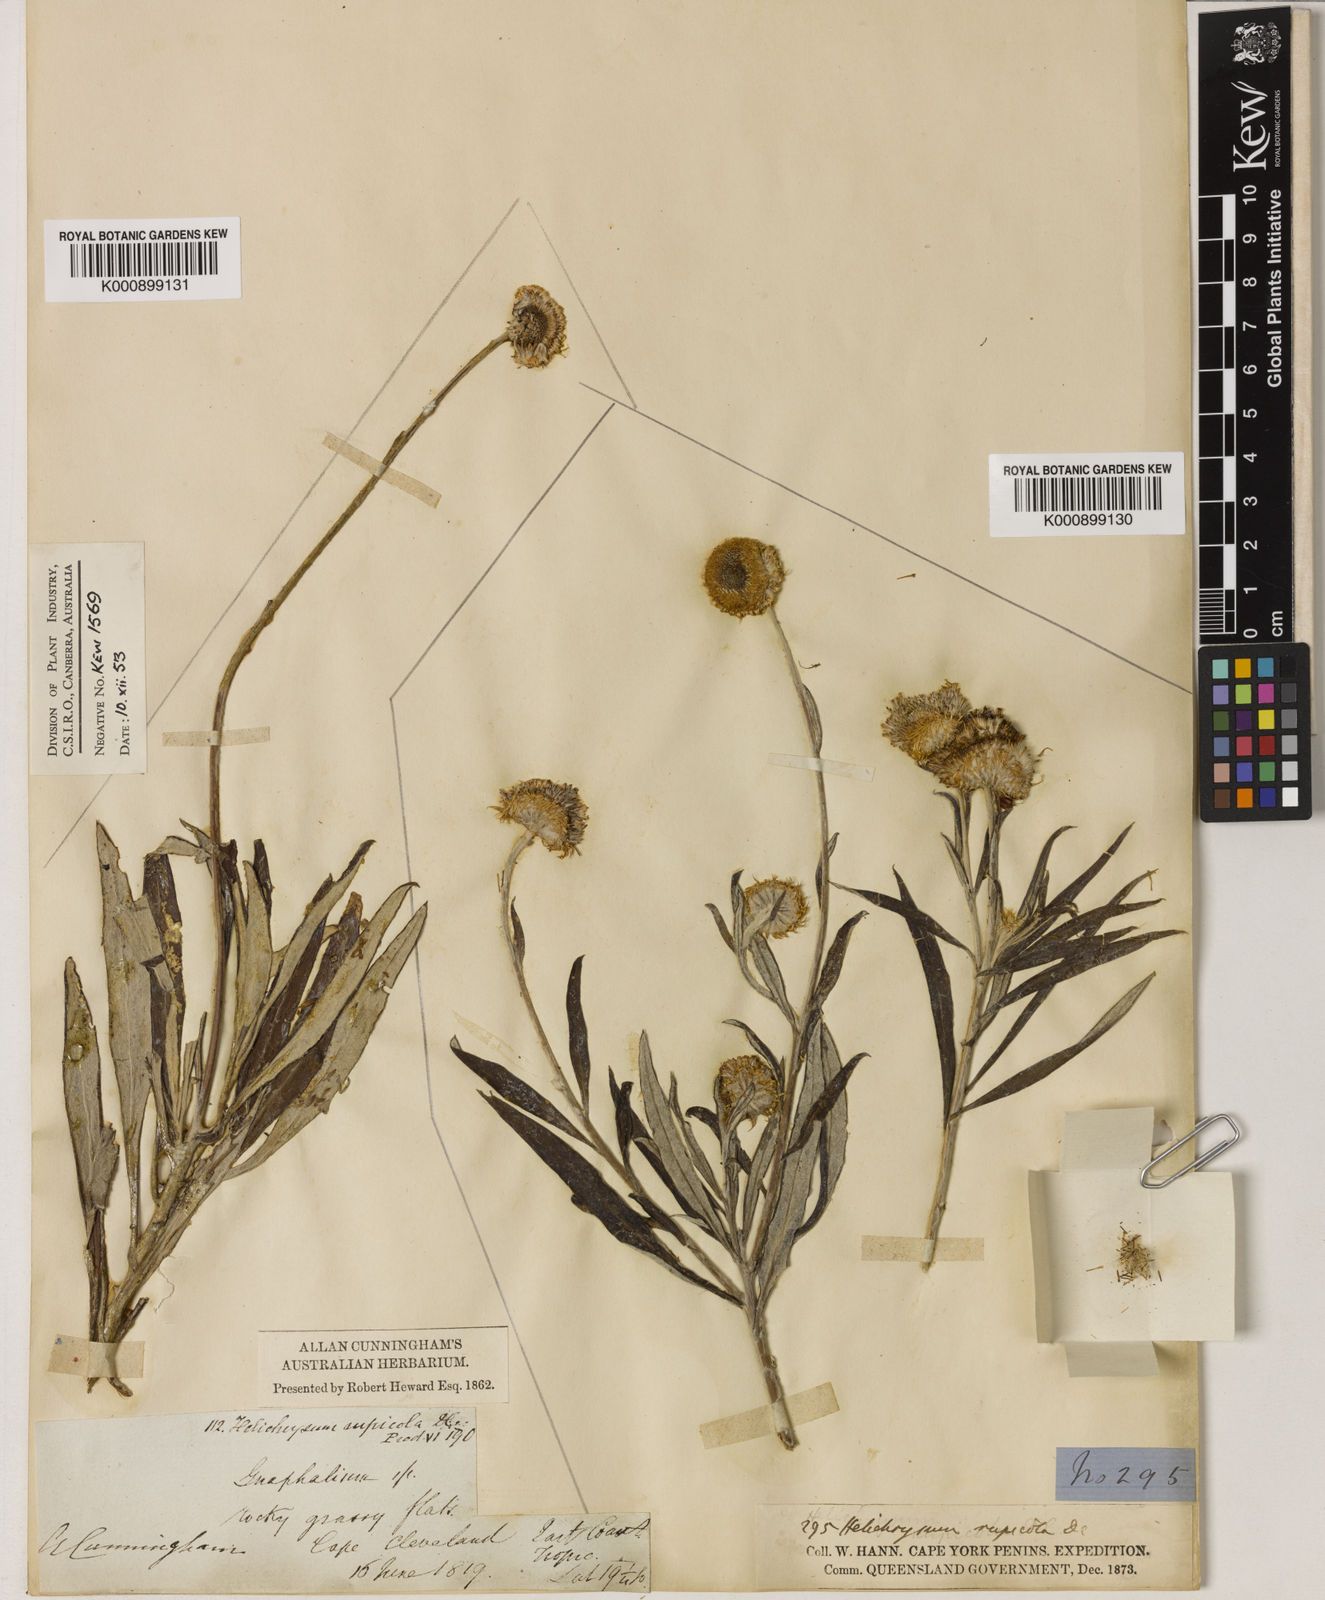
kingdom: Plantae
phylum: Tracheophyta
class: Magnoliopsida
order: Asterales
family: Asteraceae
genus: Coronidium
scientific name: Coronidium rupicola
